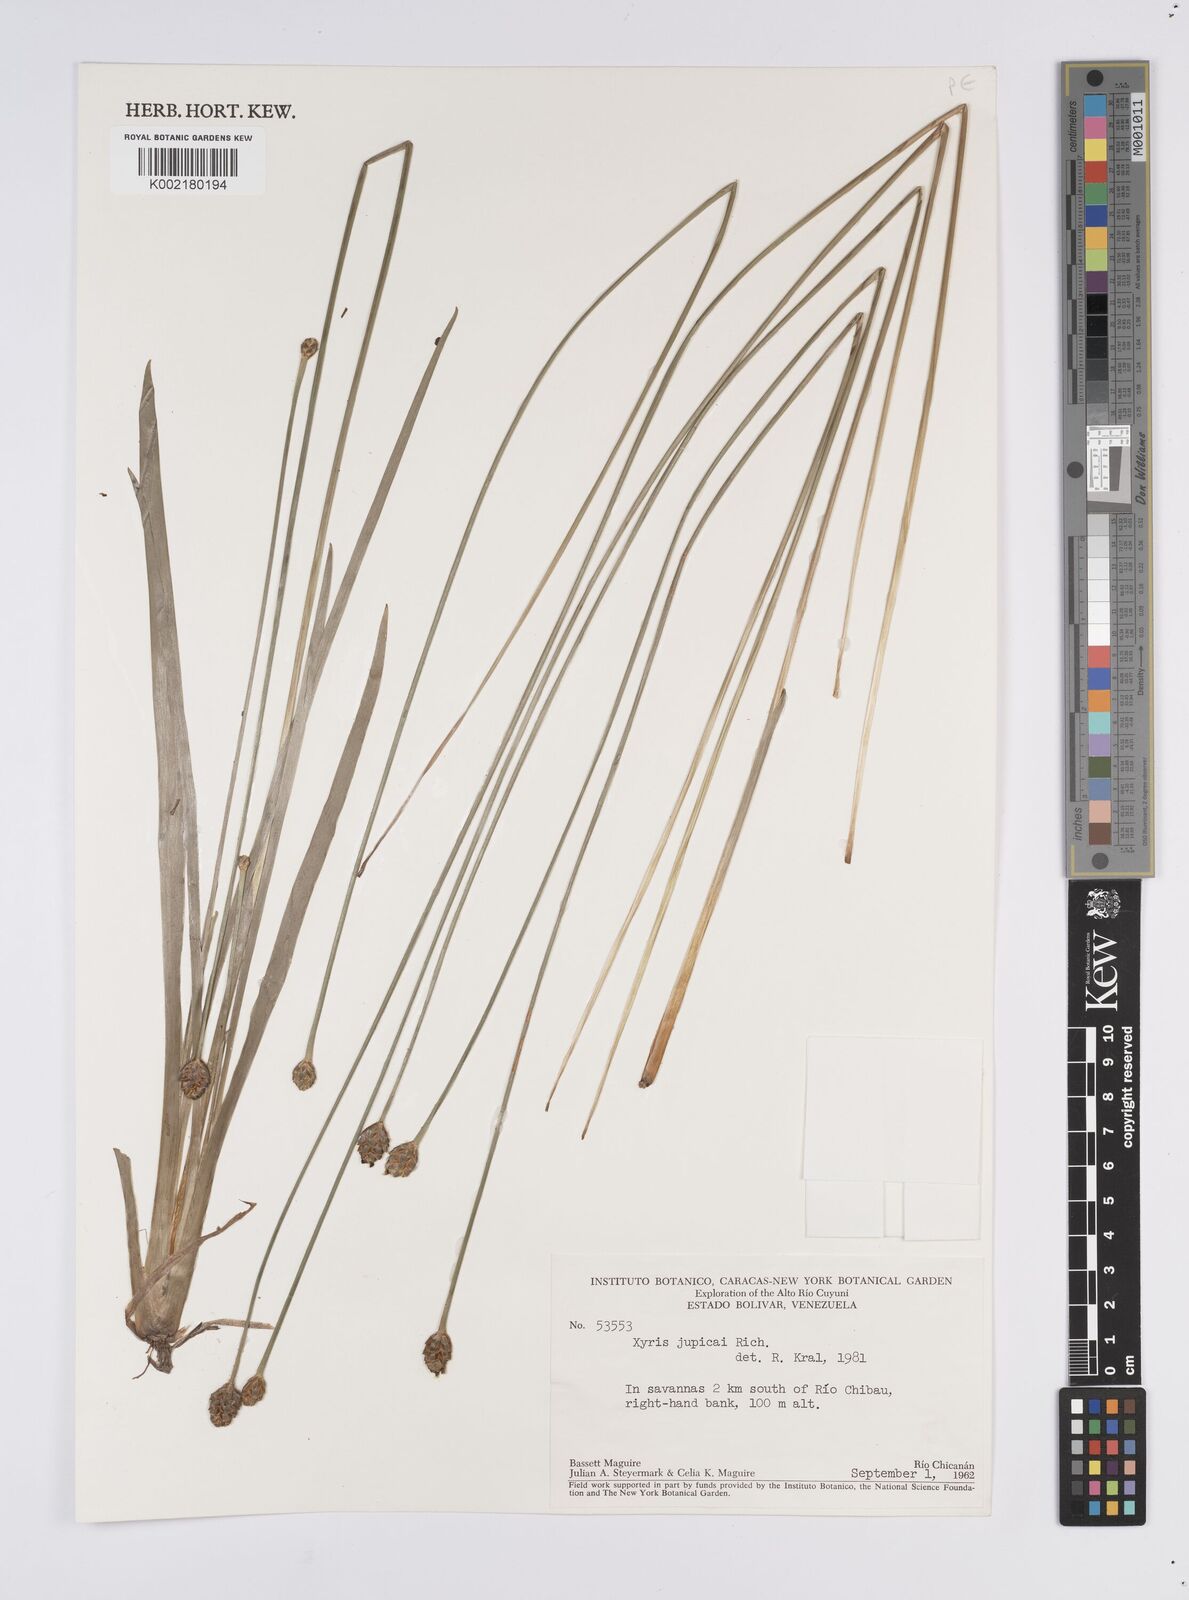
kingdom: Plantae
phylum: Tracheophyta
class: Liliopsida
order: Poales
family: Xyridaceae
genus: Xyris
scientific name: Xyris jupicai
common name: Richard's yelloweyed grass
